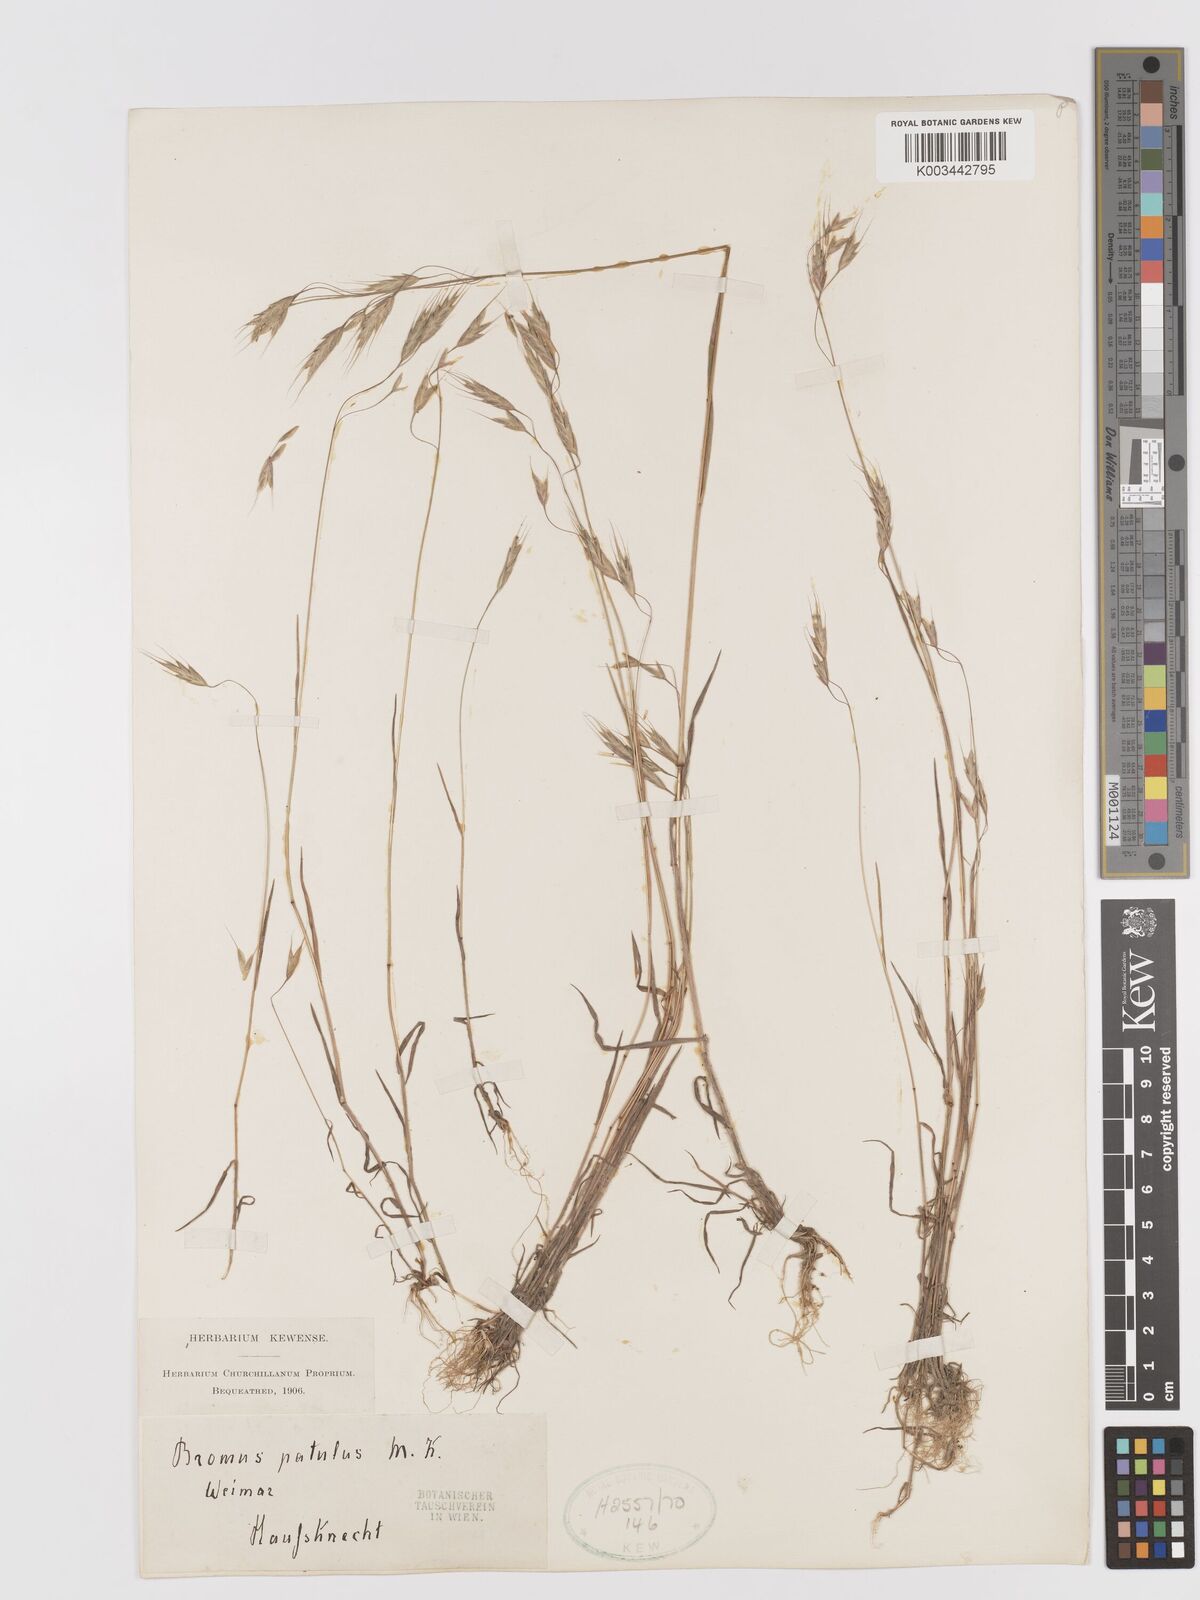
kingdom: Plantae
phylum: Tracheophyta
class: Liliopsida
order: Poales
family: Poaceae
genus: Bromus
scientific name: Bromus japonicus
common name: Japanese brome
